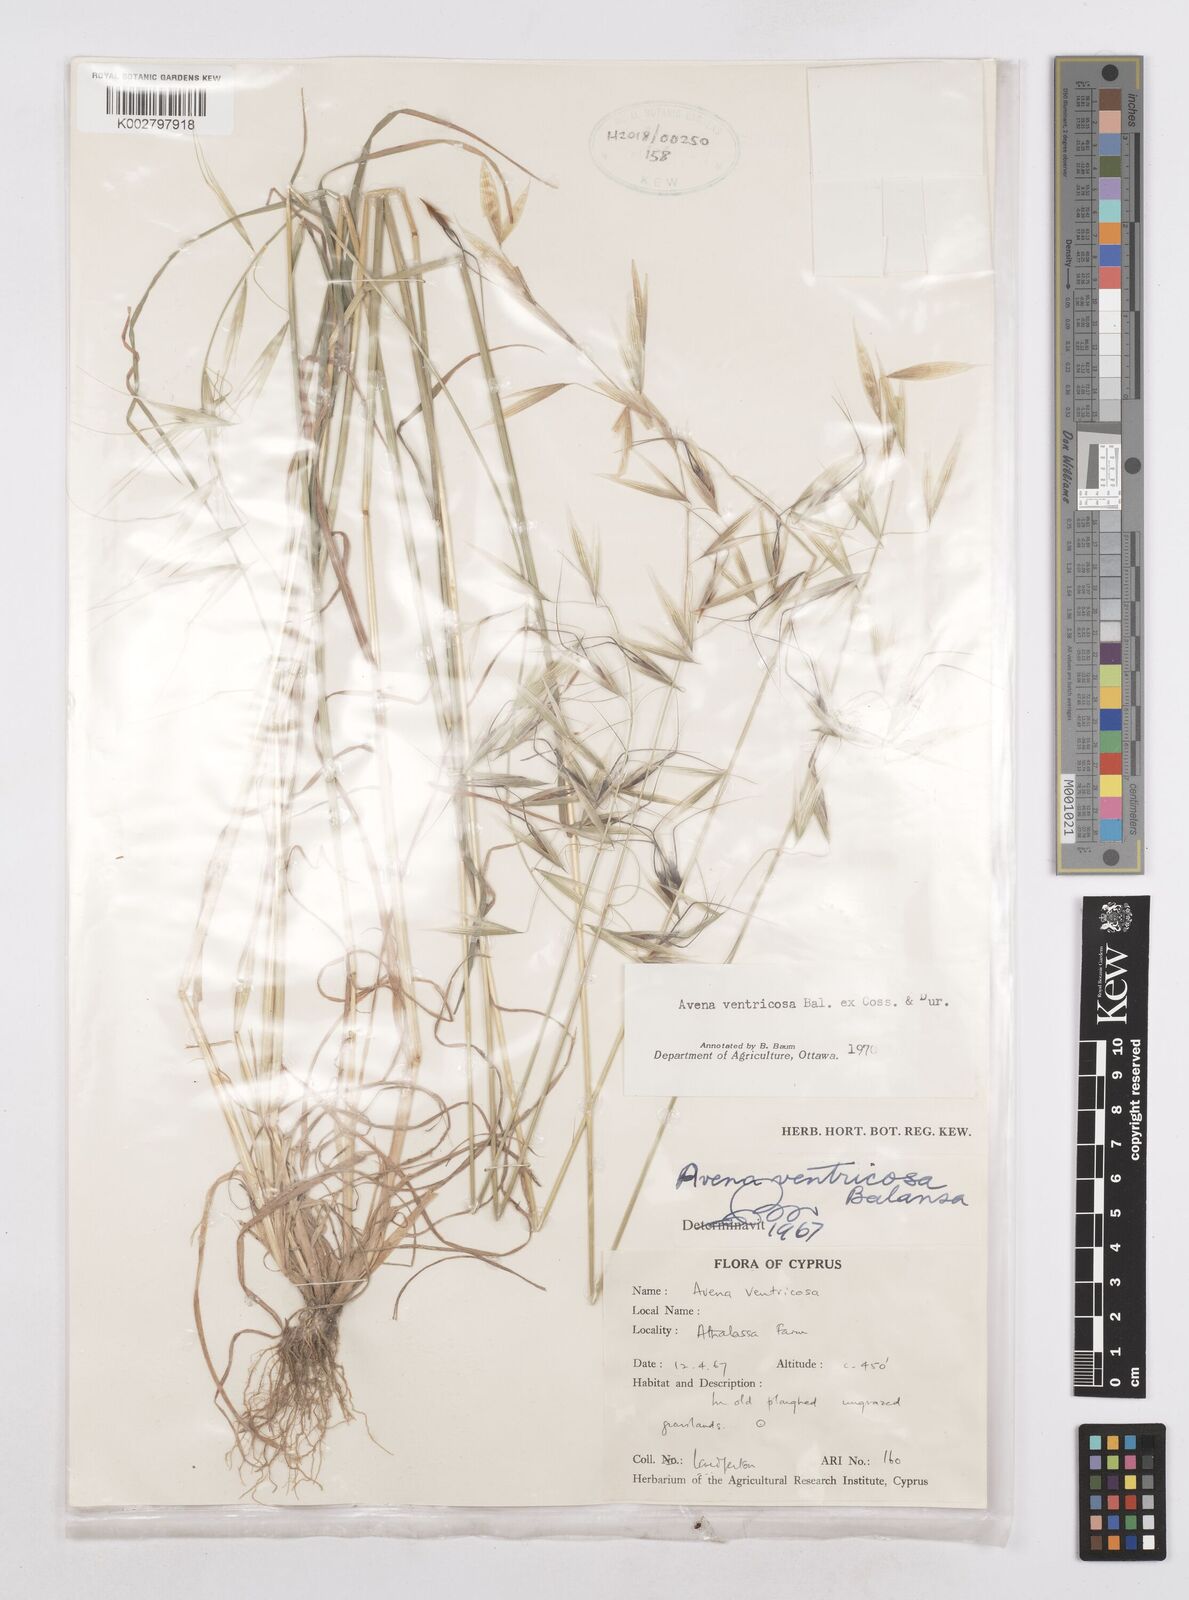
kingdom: Plantae
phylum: Tracheophyta
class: Liliopsida
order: Poales
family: Poaceae
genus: Avena
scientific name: Avena ventricosa
